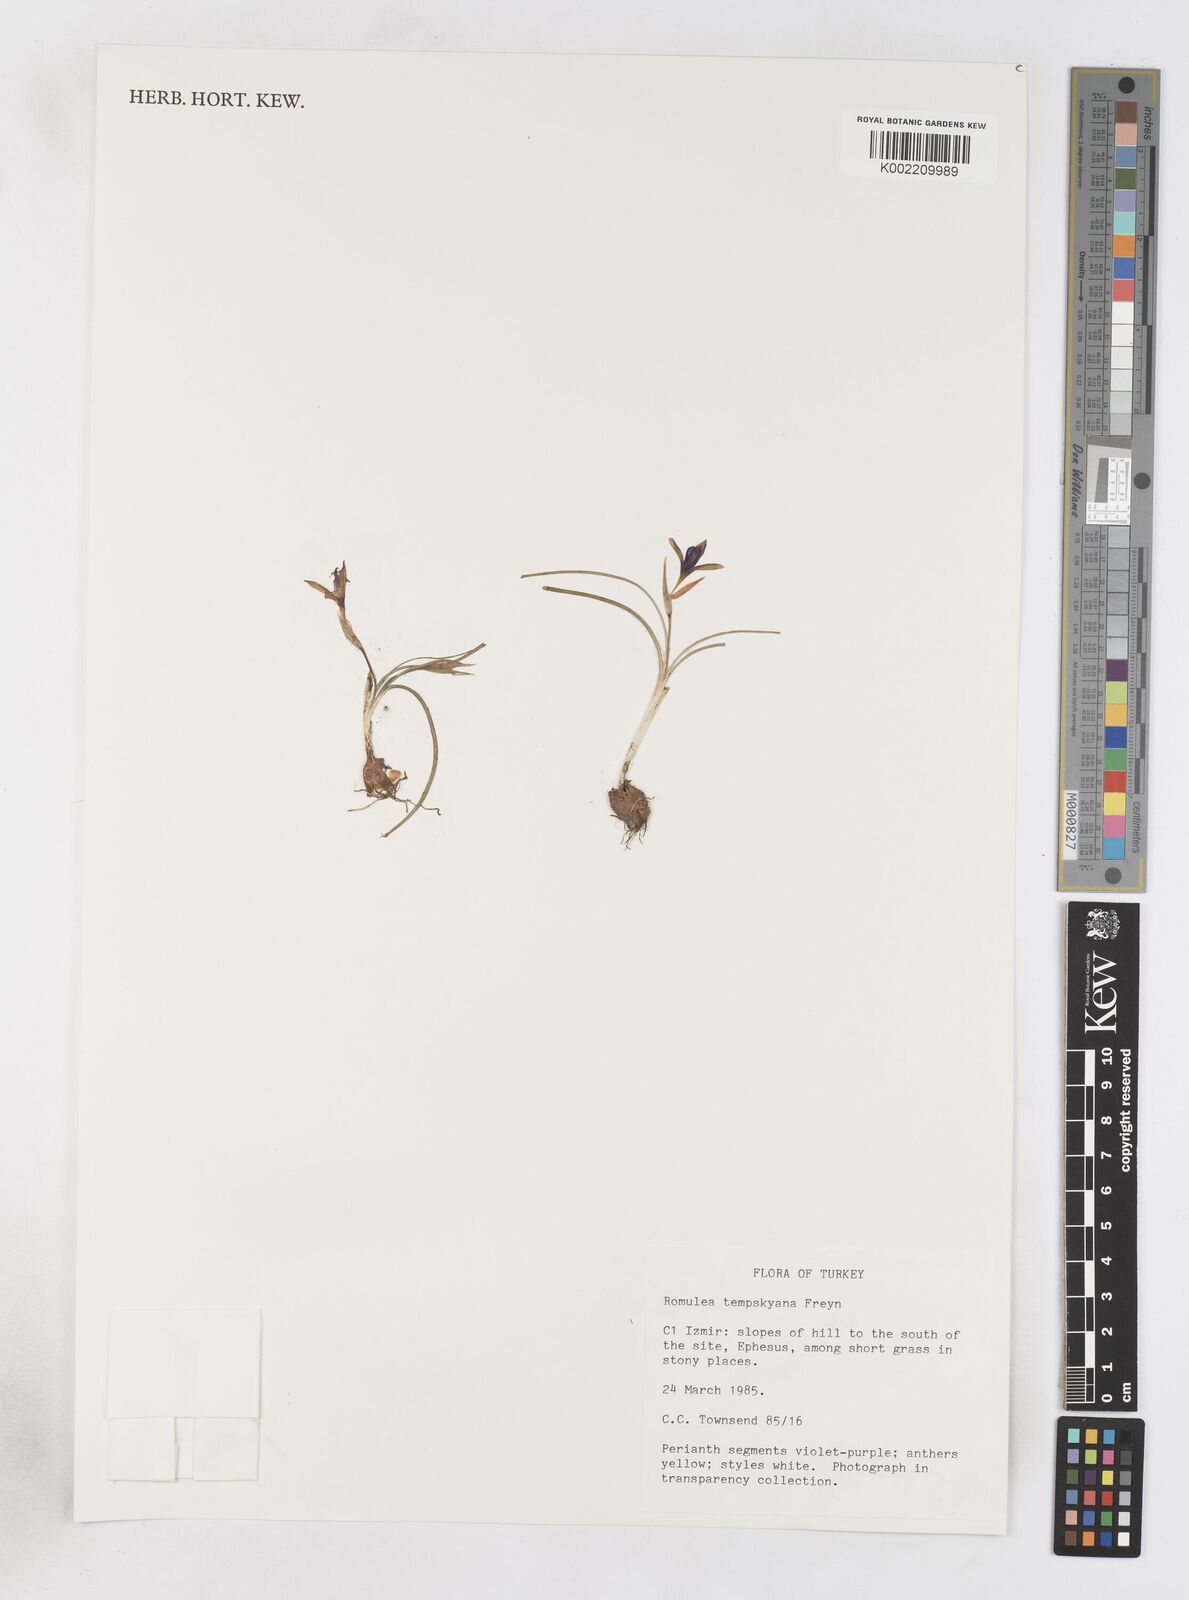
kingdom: Plantae
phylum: Tracheophyta
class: Liliopsida
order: Asparagales
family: Iridaceae
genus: Romulea
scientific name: Romulea tempskyana
